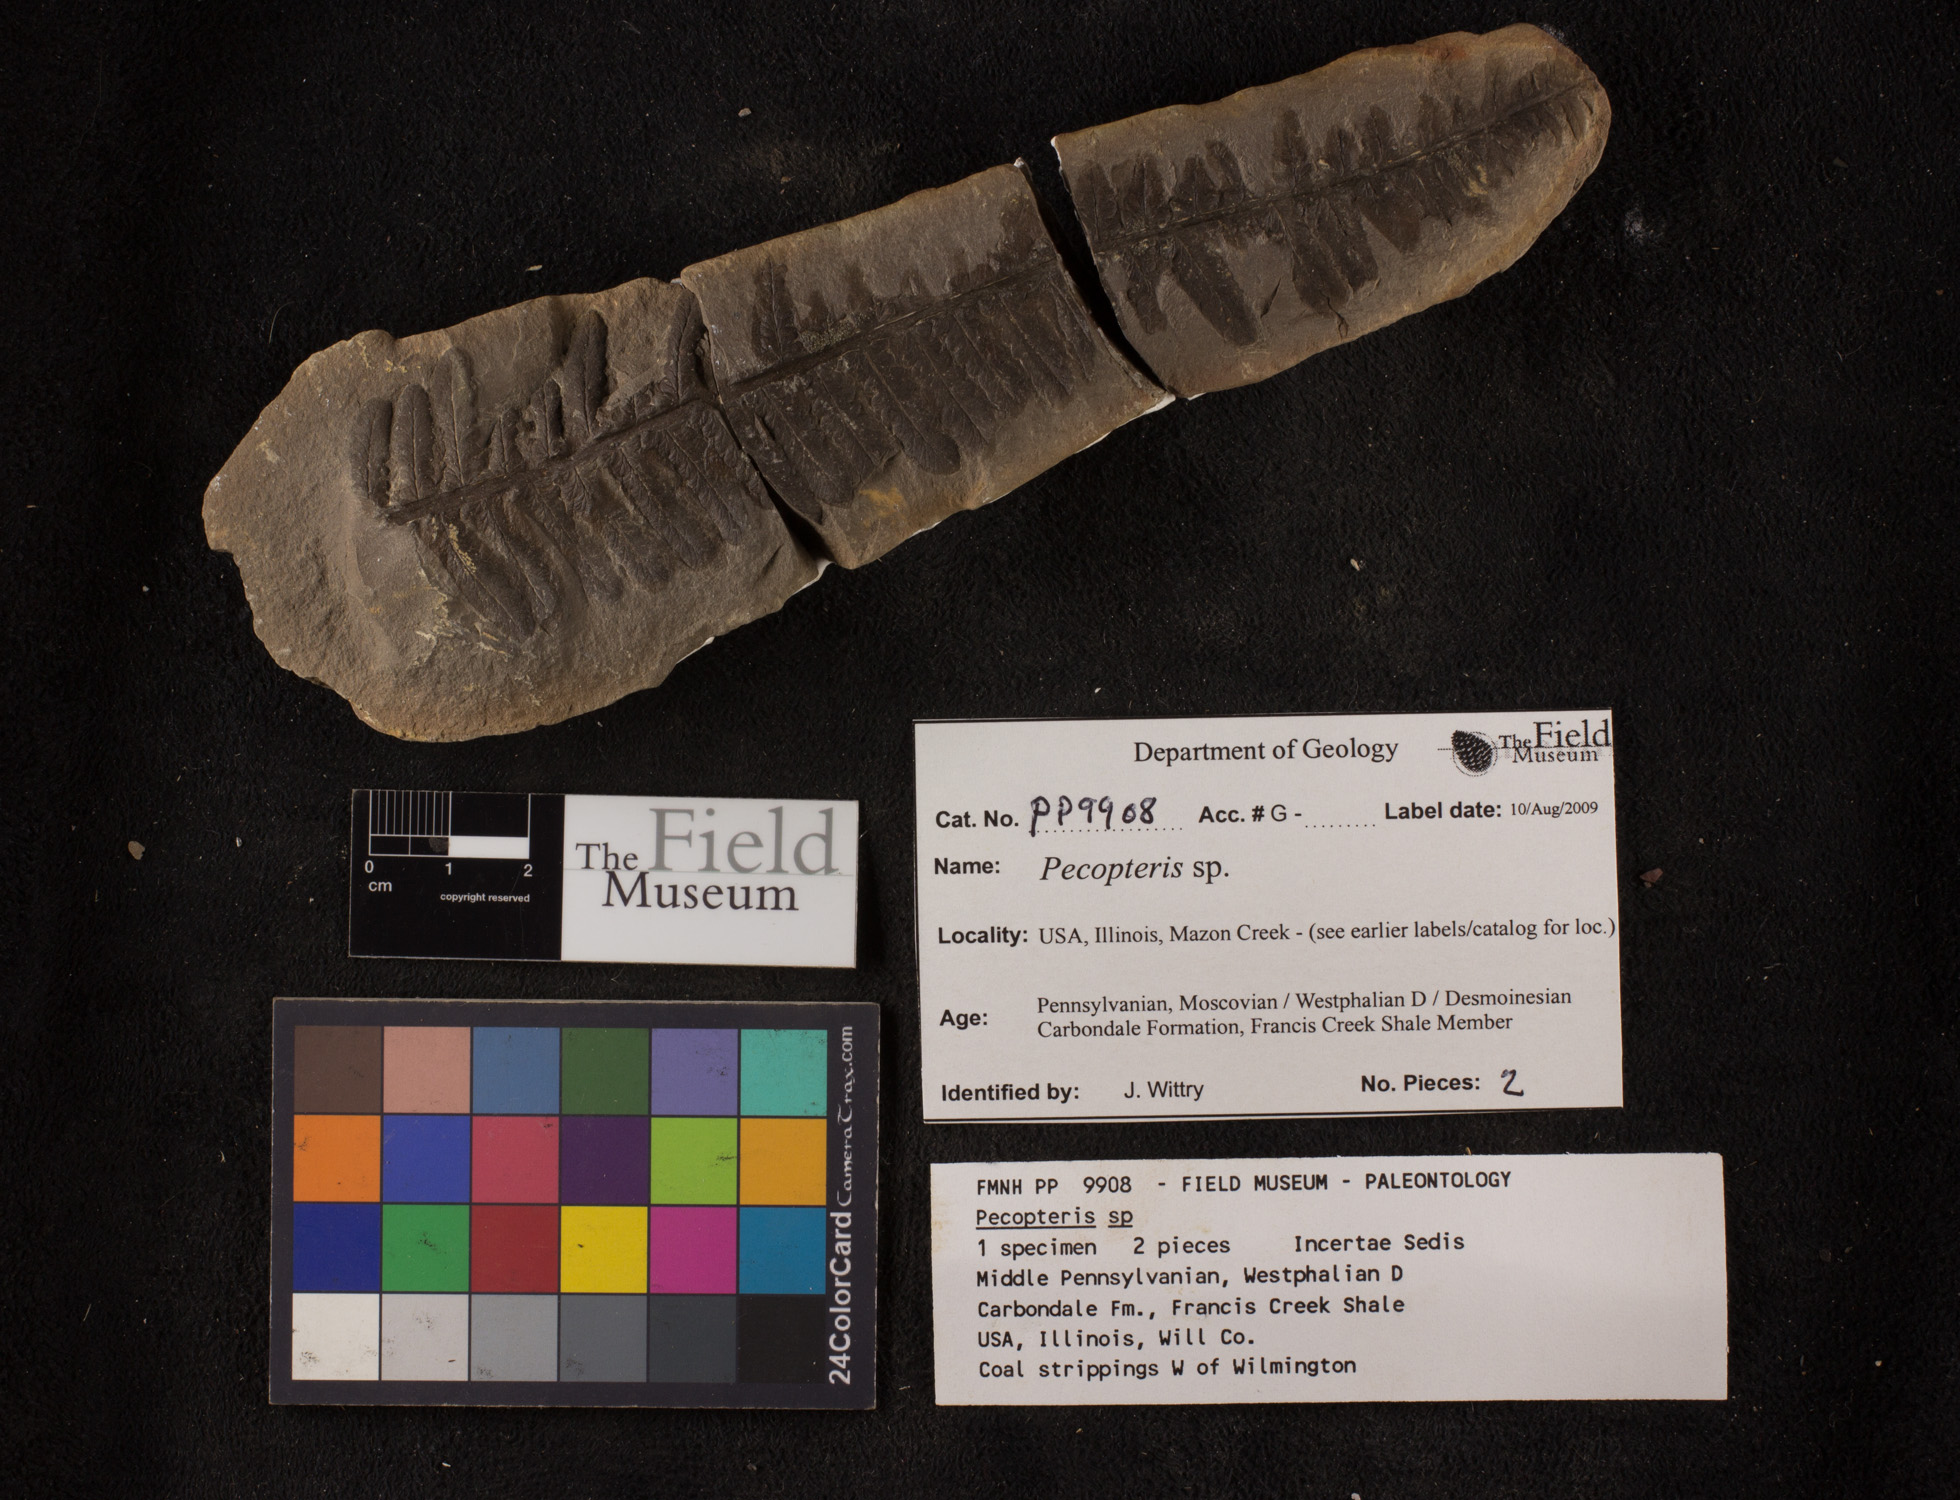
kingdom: Plantae
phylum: Tracheophyta
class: Polypodiopsida
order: Marattiales
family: Asterothecaceae
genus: Pecopteris
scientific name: Pecopteris
